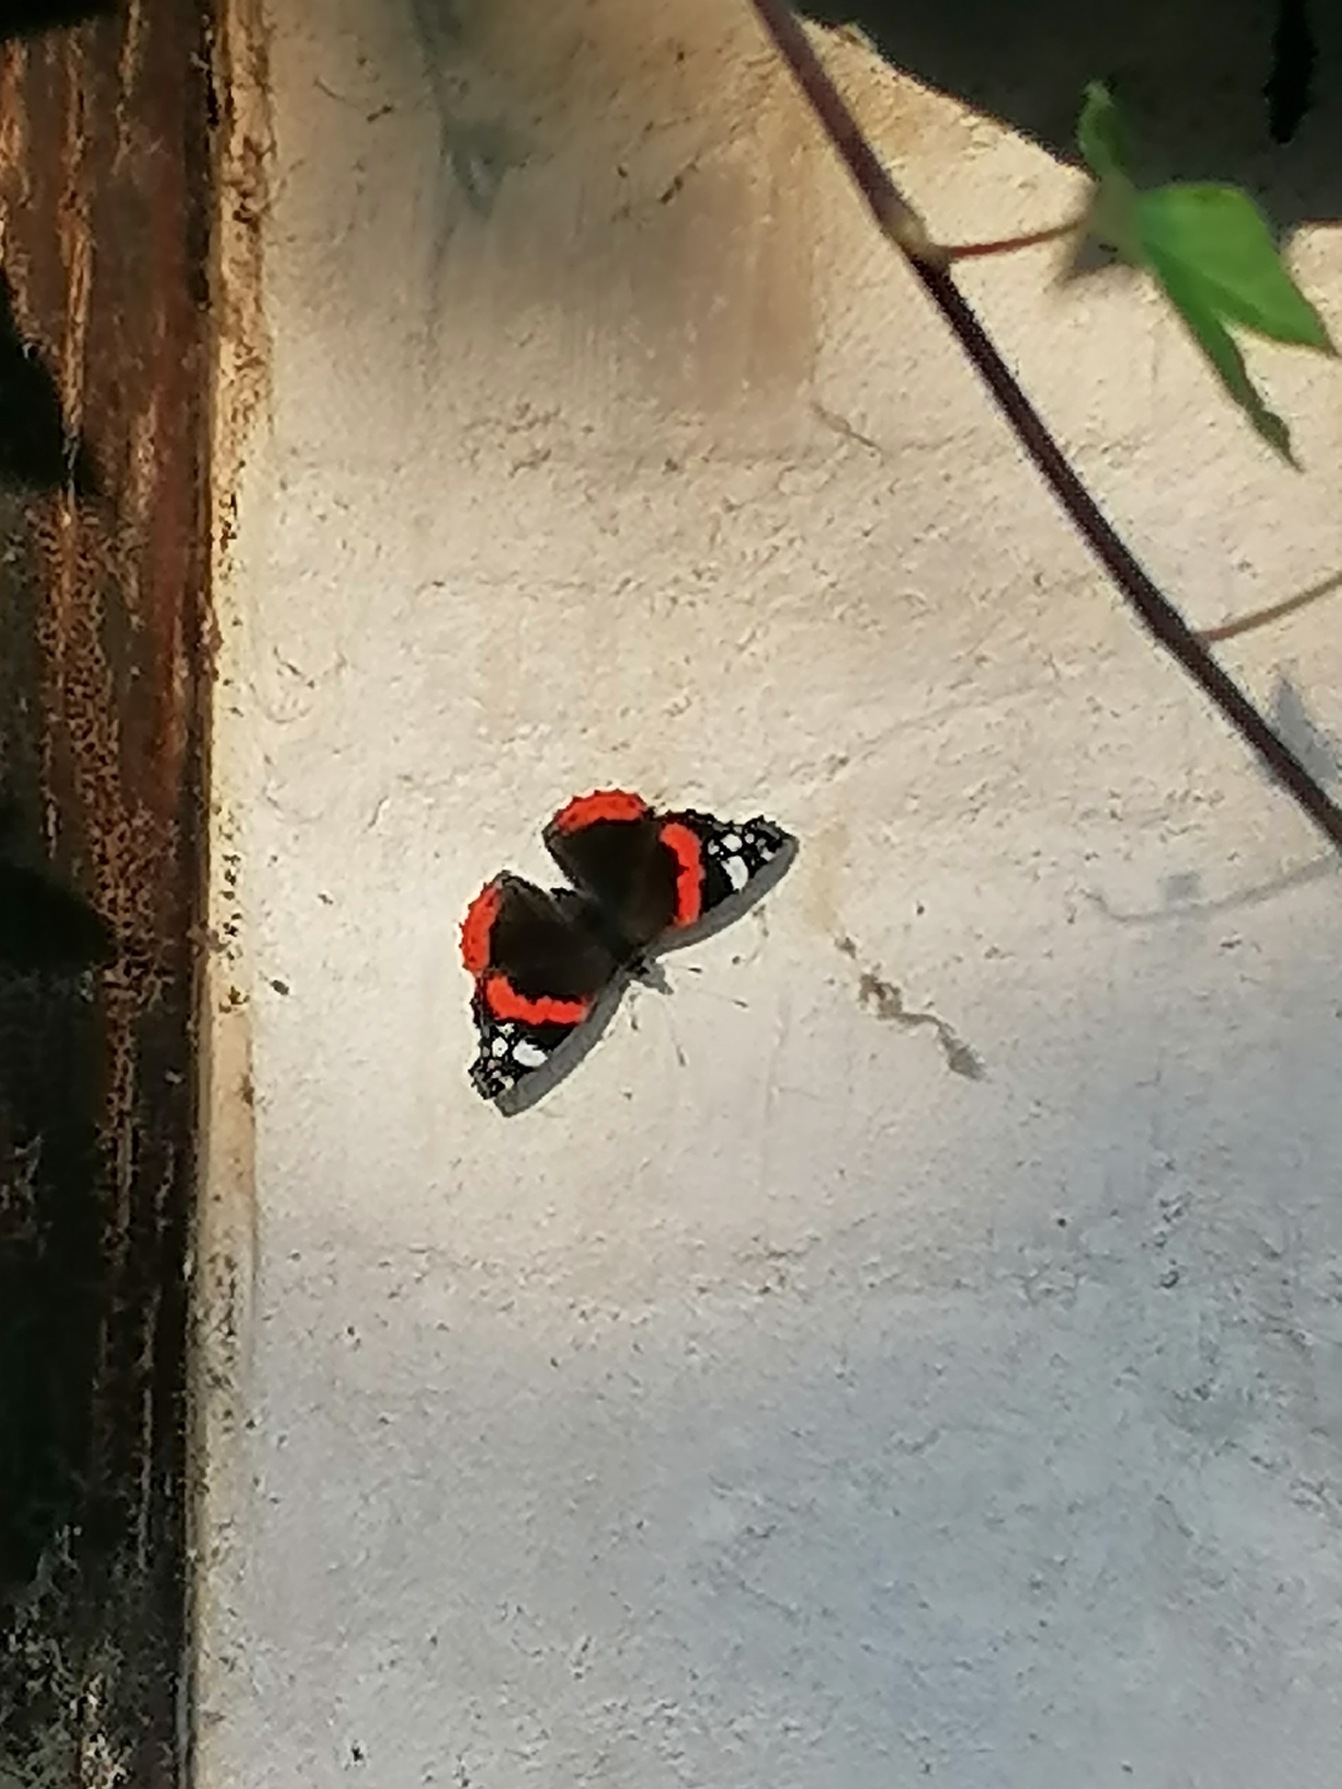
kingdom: Animalia
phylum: Arthropoda
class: Insecta
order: Lepidoptera
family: Nymphalidae
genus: Vanessa
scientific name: Vanessa atalanta
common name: Admiral
